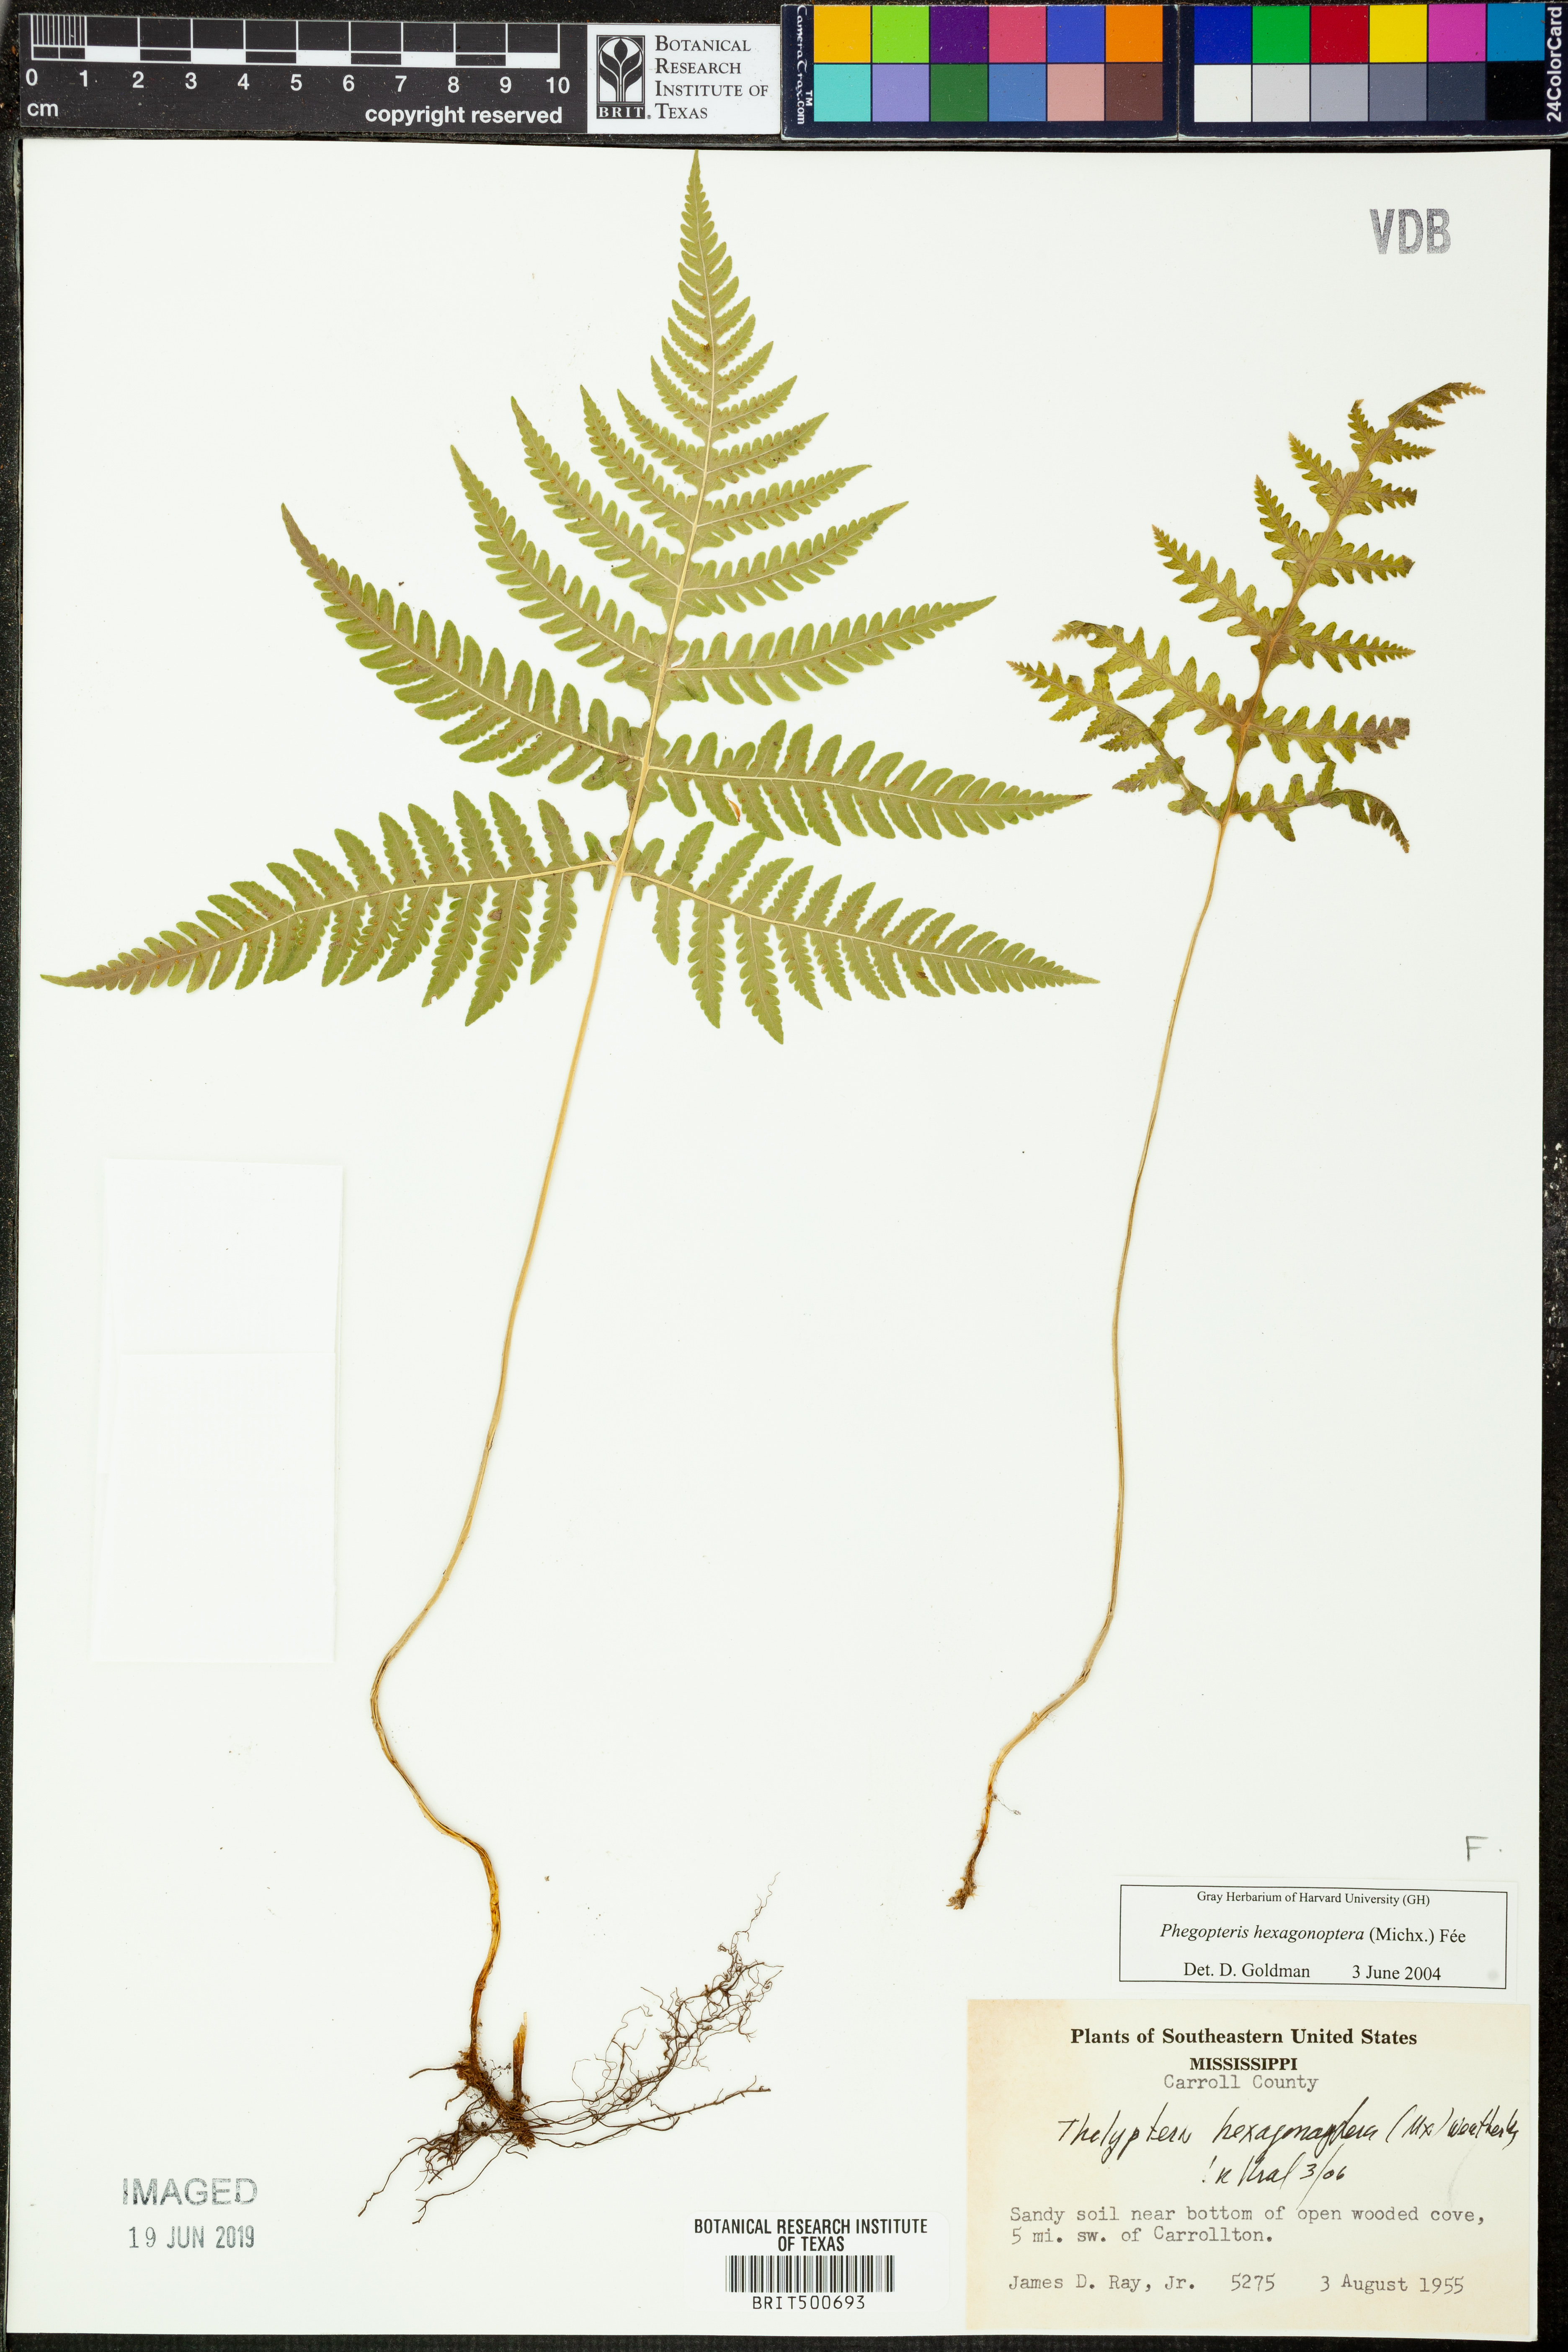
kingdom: Plantae
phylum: Tracheophyta
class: Polypodiopsida
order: Polypodiales
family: Thelypteridaceae
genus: Phegopteris
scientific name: Phegopteris hexagonoptera
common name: Broad beech fern
